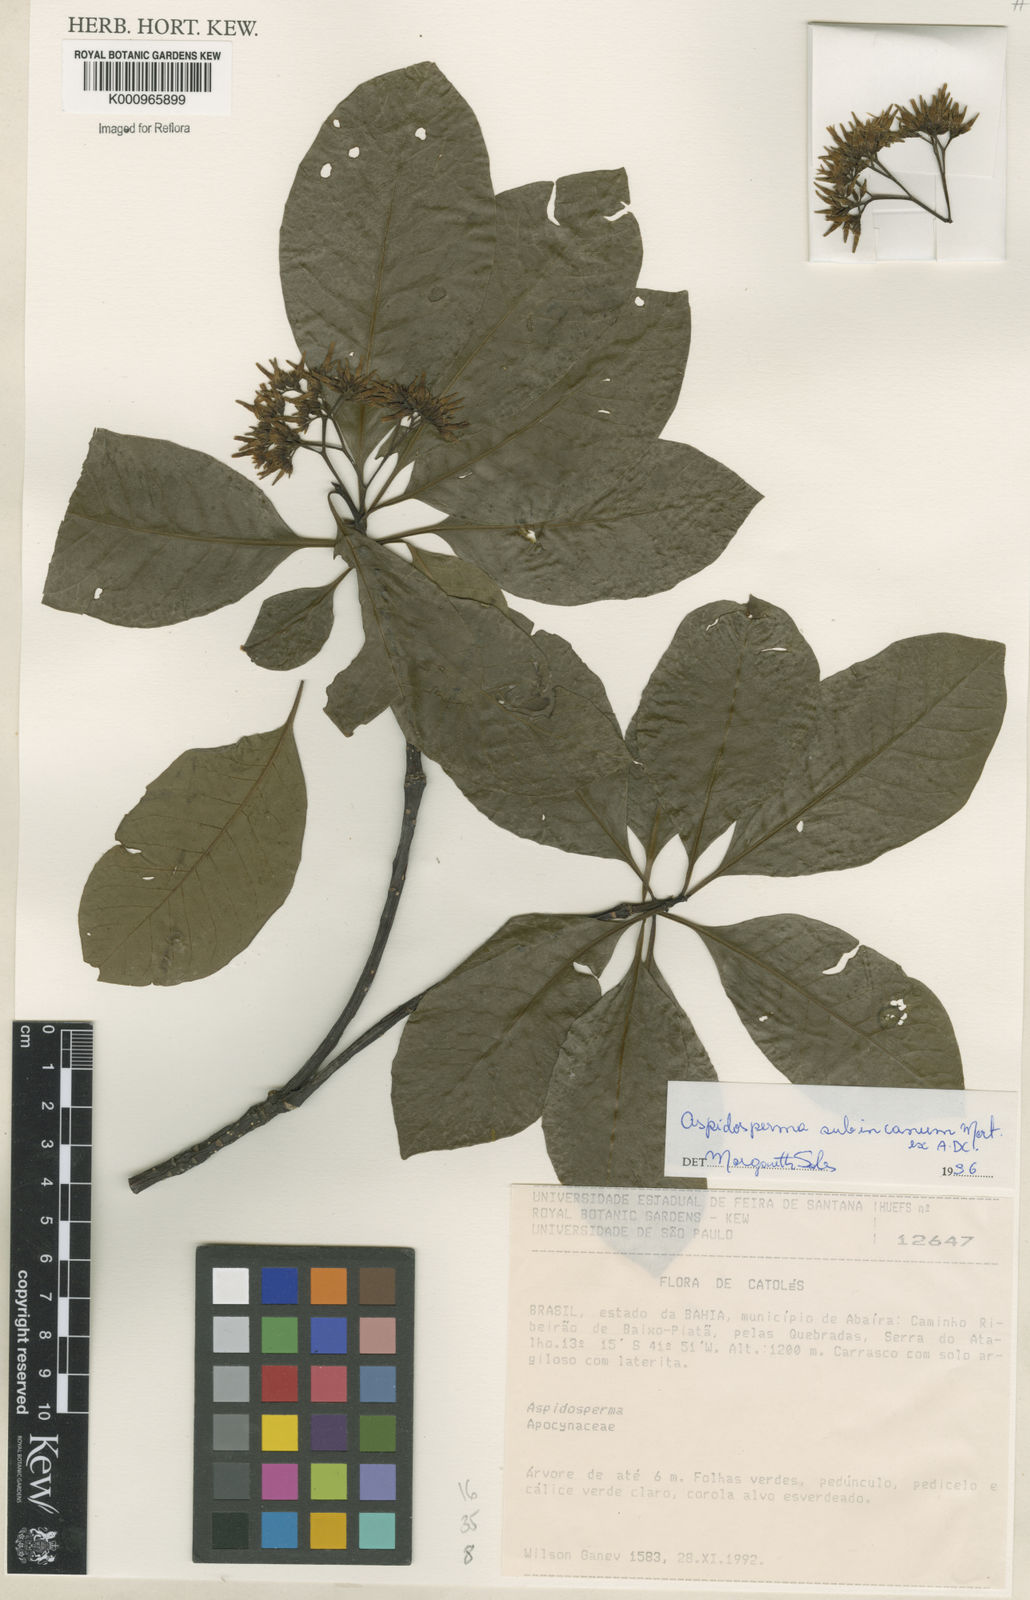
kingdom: Plantae
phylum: Tracheophyta
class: Magnoliopsida
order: Gentianales
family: Apocynaceae
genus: Aspidosperma
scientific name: Aspidosperma subincanum
